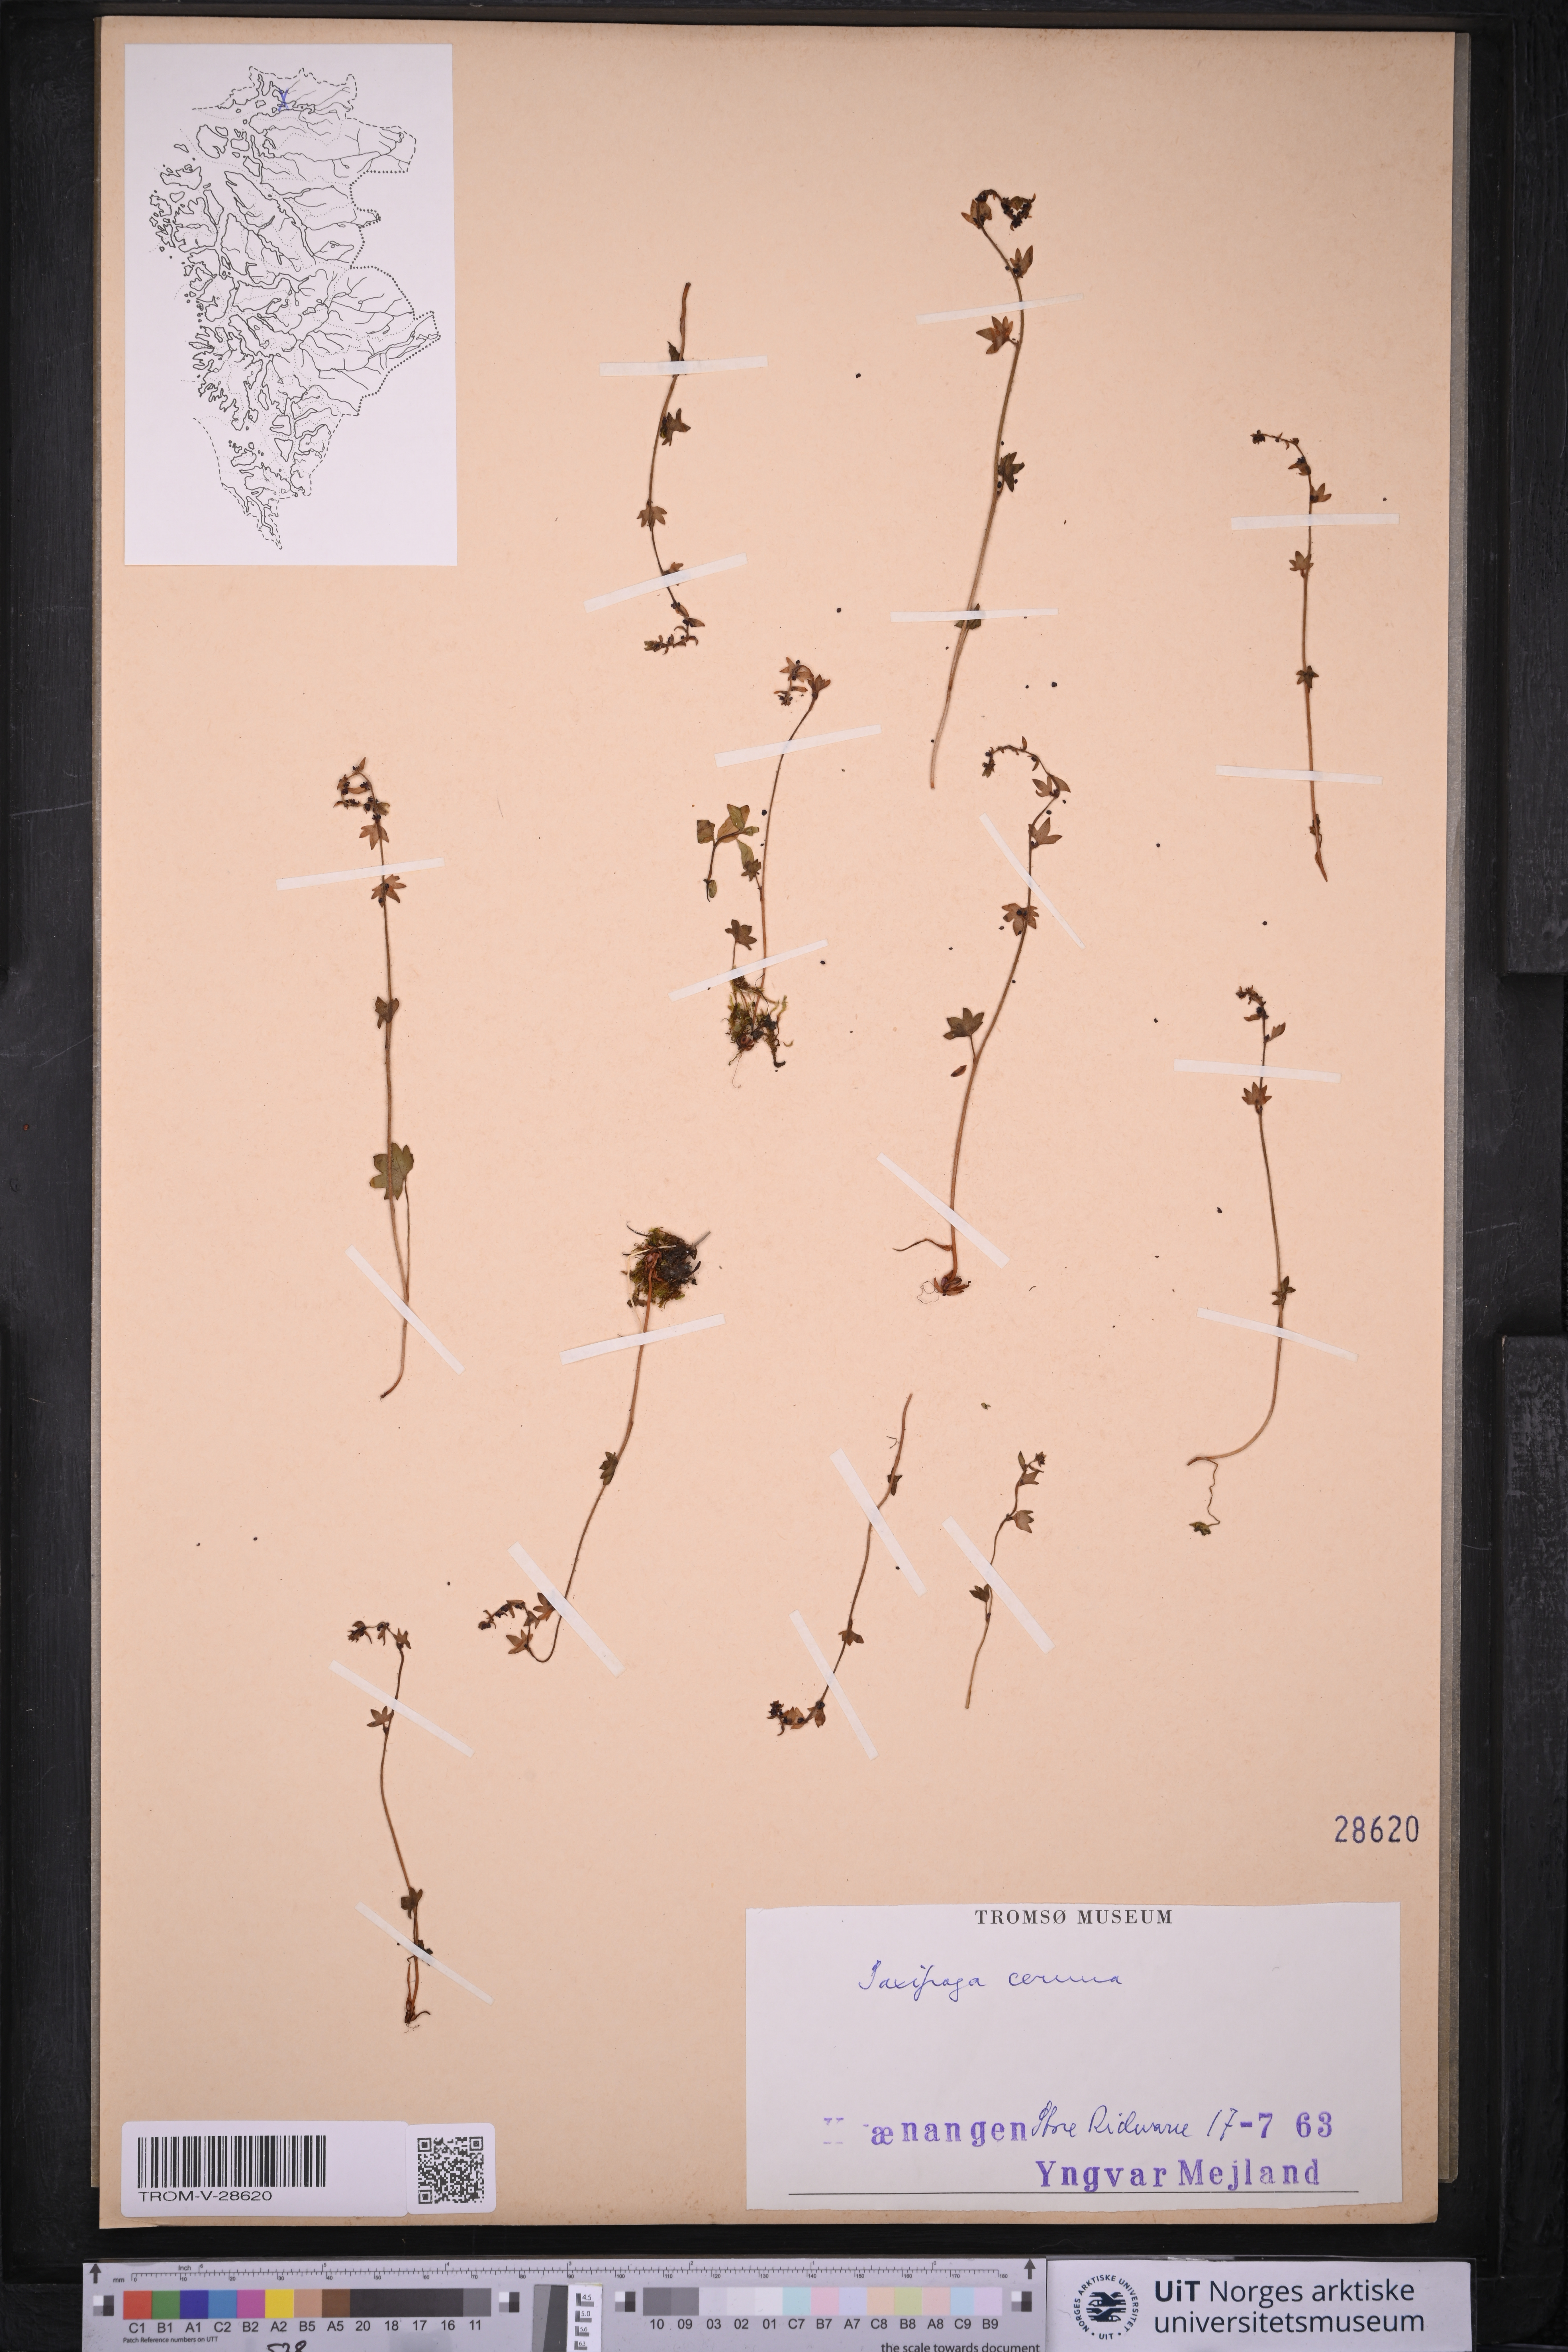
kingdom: Plantae
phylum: Tracheophyta
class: Magnoliopsida
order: Saxifragales
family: Saxifragaceae
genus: Saxifraga
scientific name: Saxifraga cernua
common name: Drooping saxifrage
